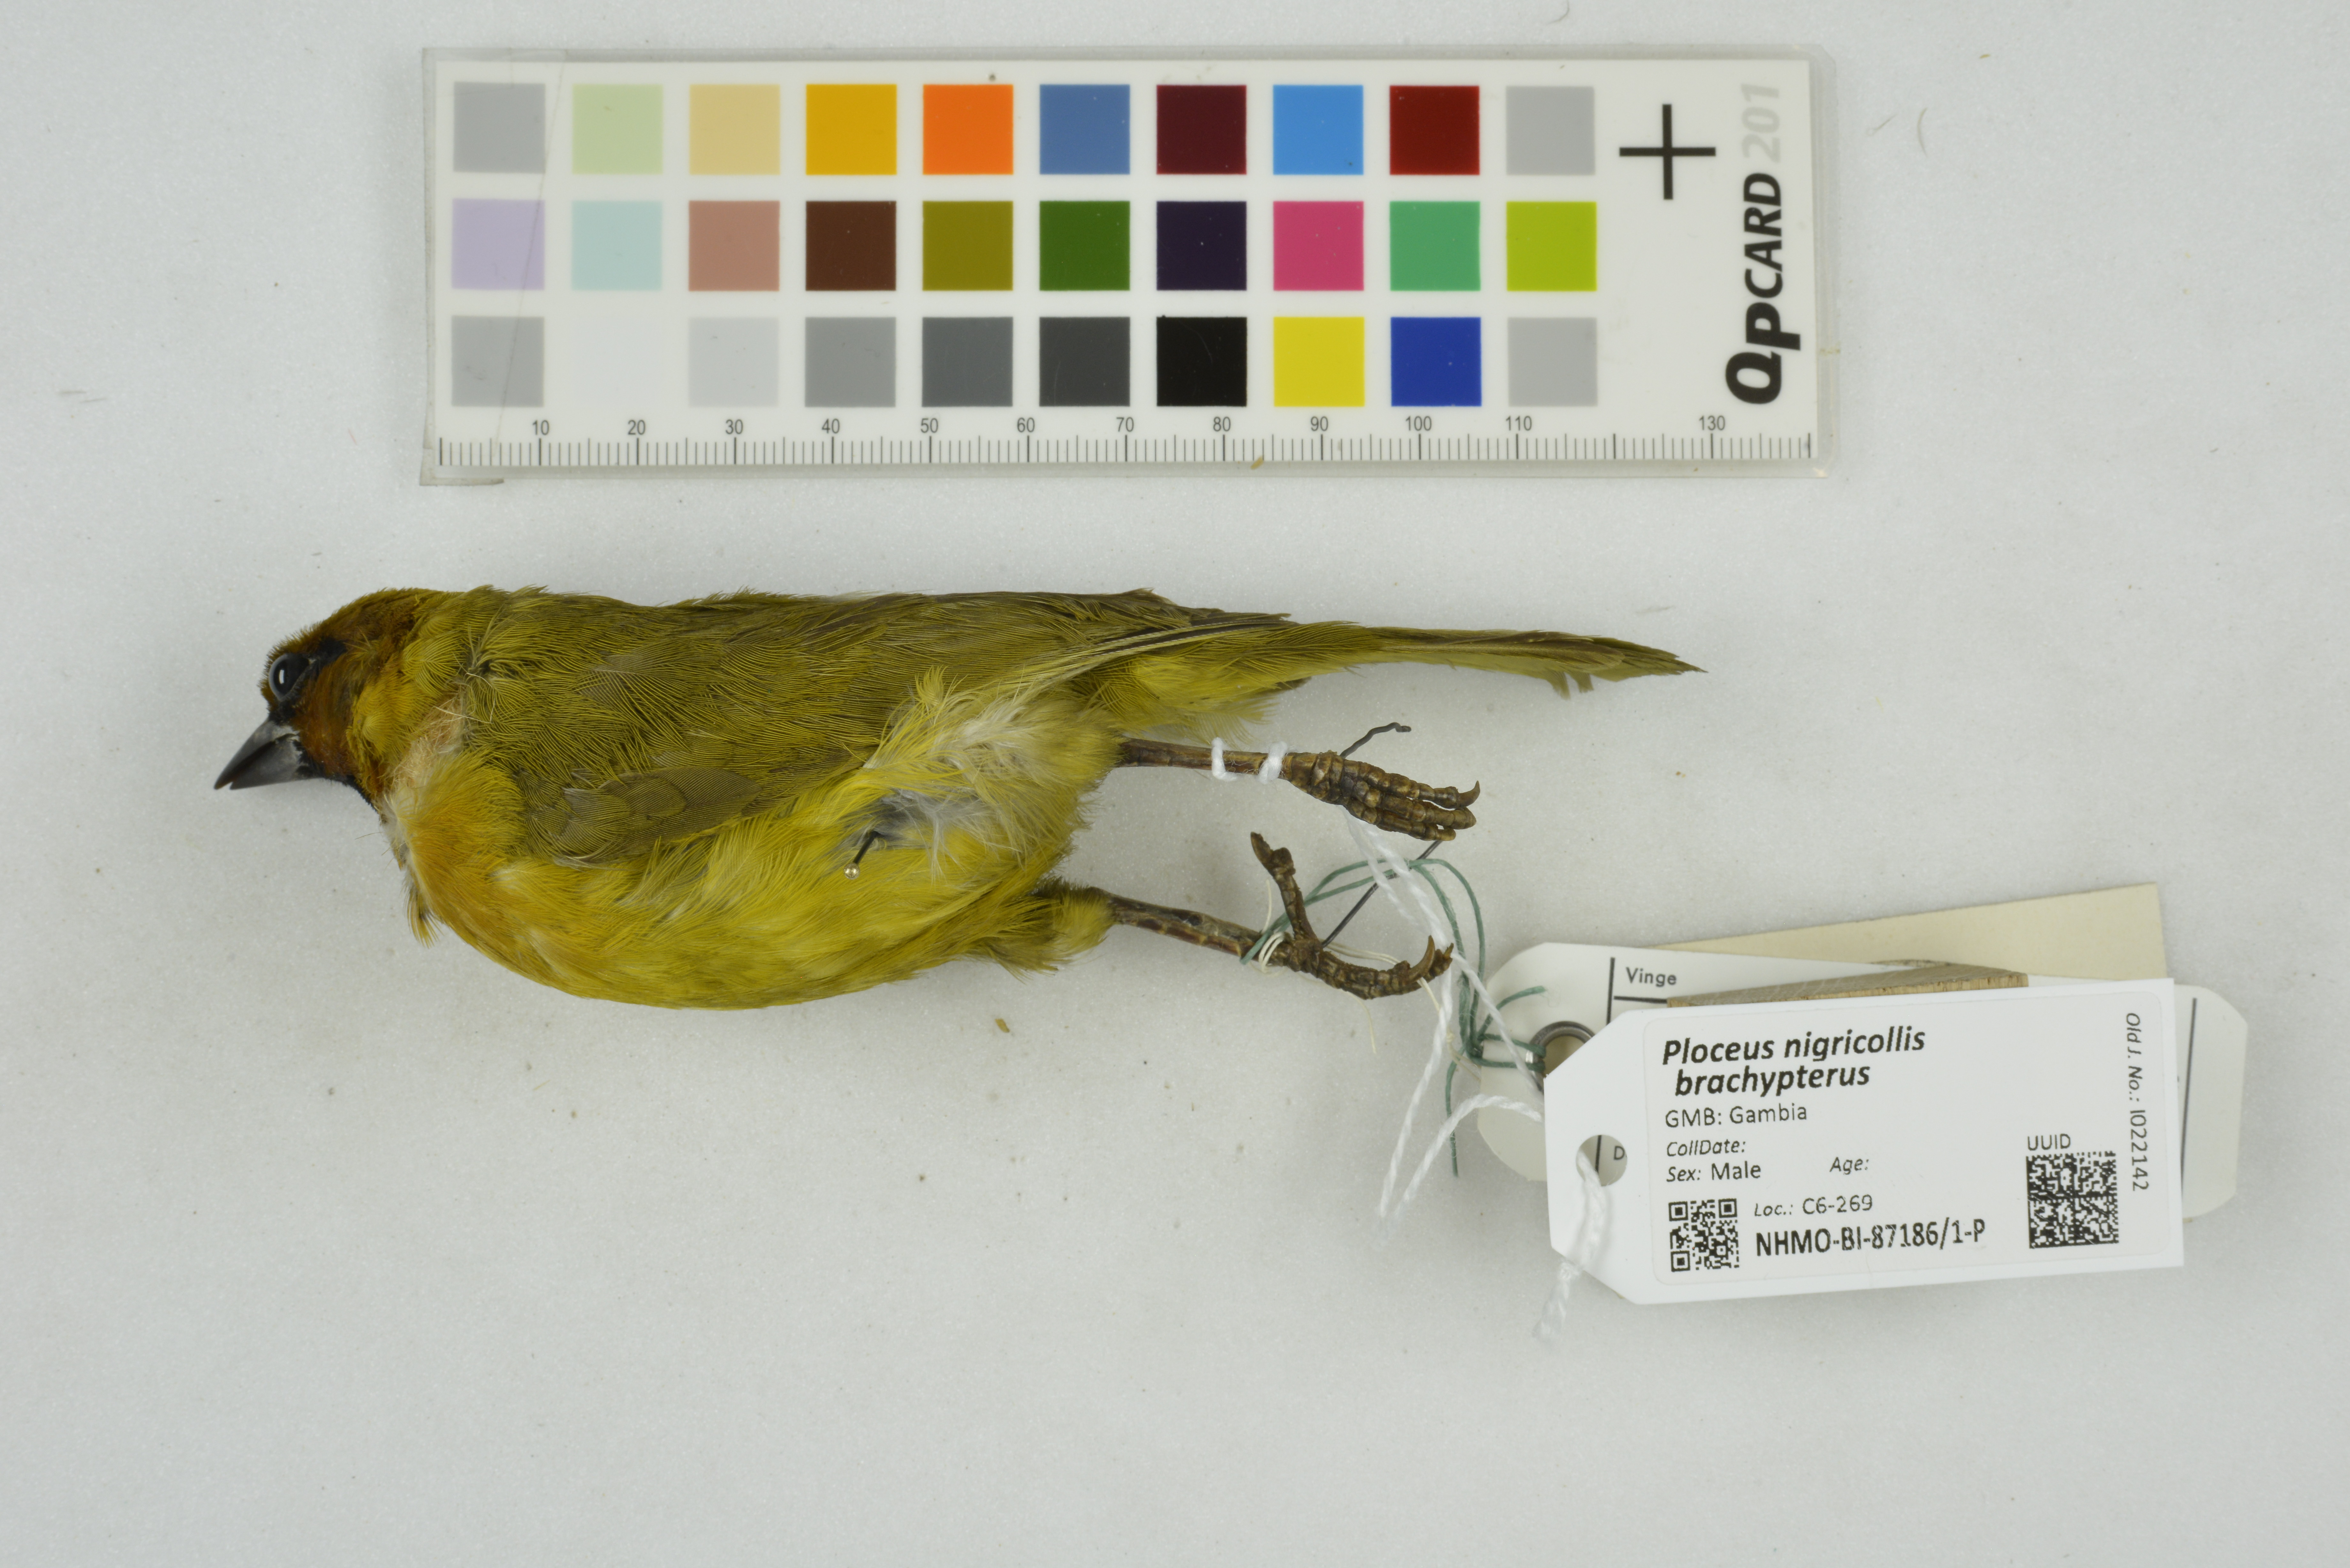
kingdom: Animalia
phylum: Chordata
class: Aves
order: Passeriformes
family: Ploceidae
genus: Ploceus
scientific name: Ploceus nigricollis
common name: Black-necked weaver
